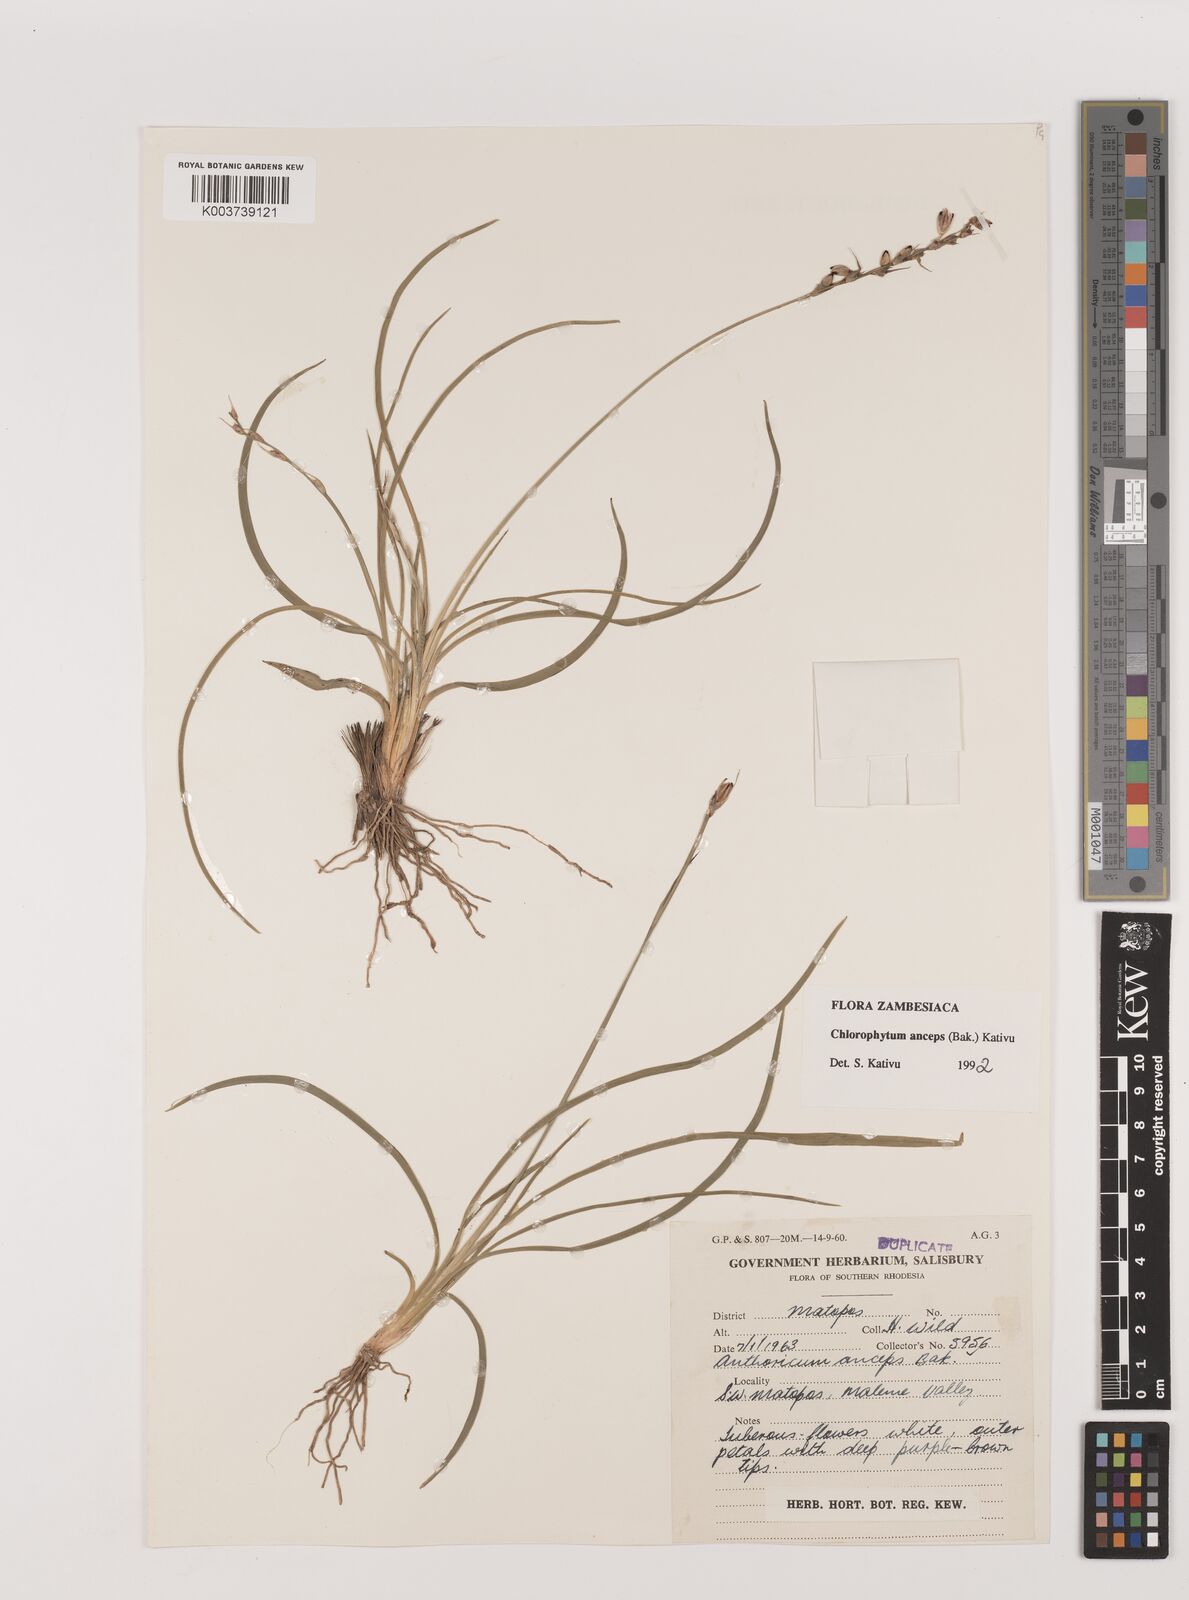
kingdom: Plantae
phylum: Tracheophyta
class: Liliopsida
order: Asparagales
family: Asparagaceae
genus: Chlorophytum
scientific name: Chlorophytum anceps
